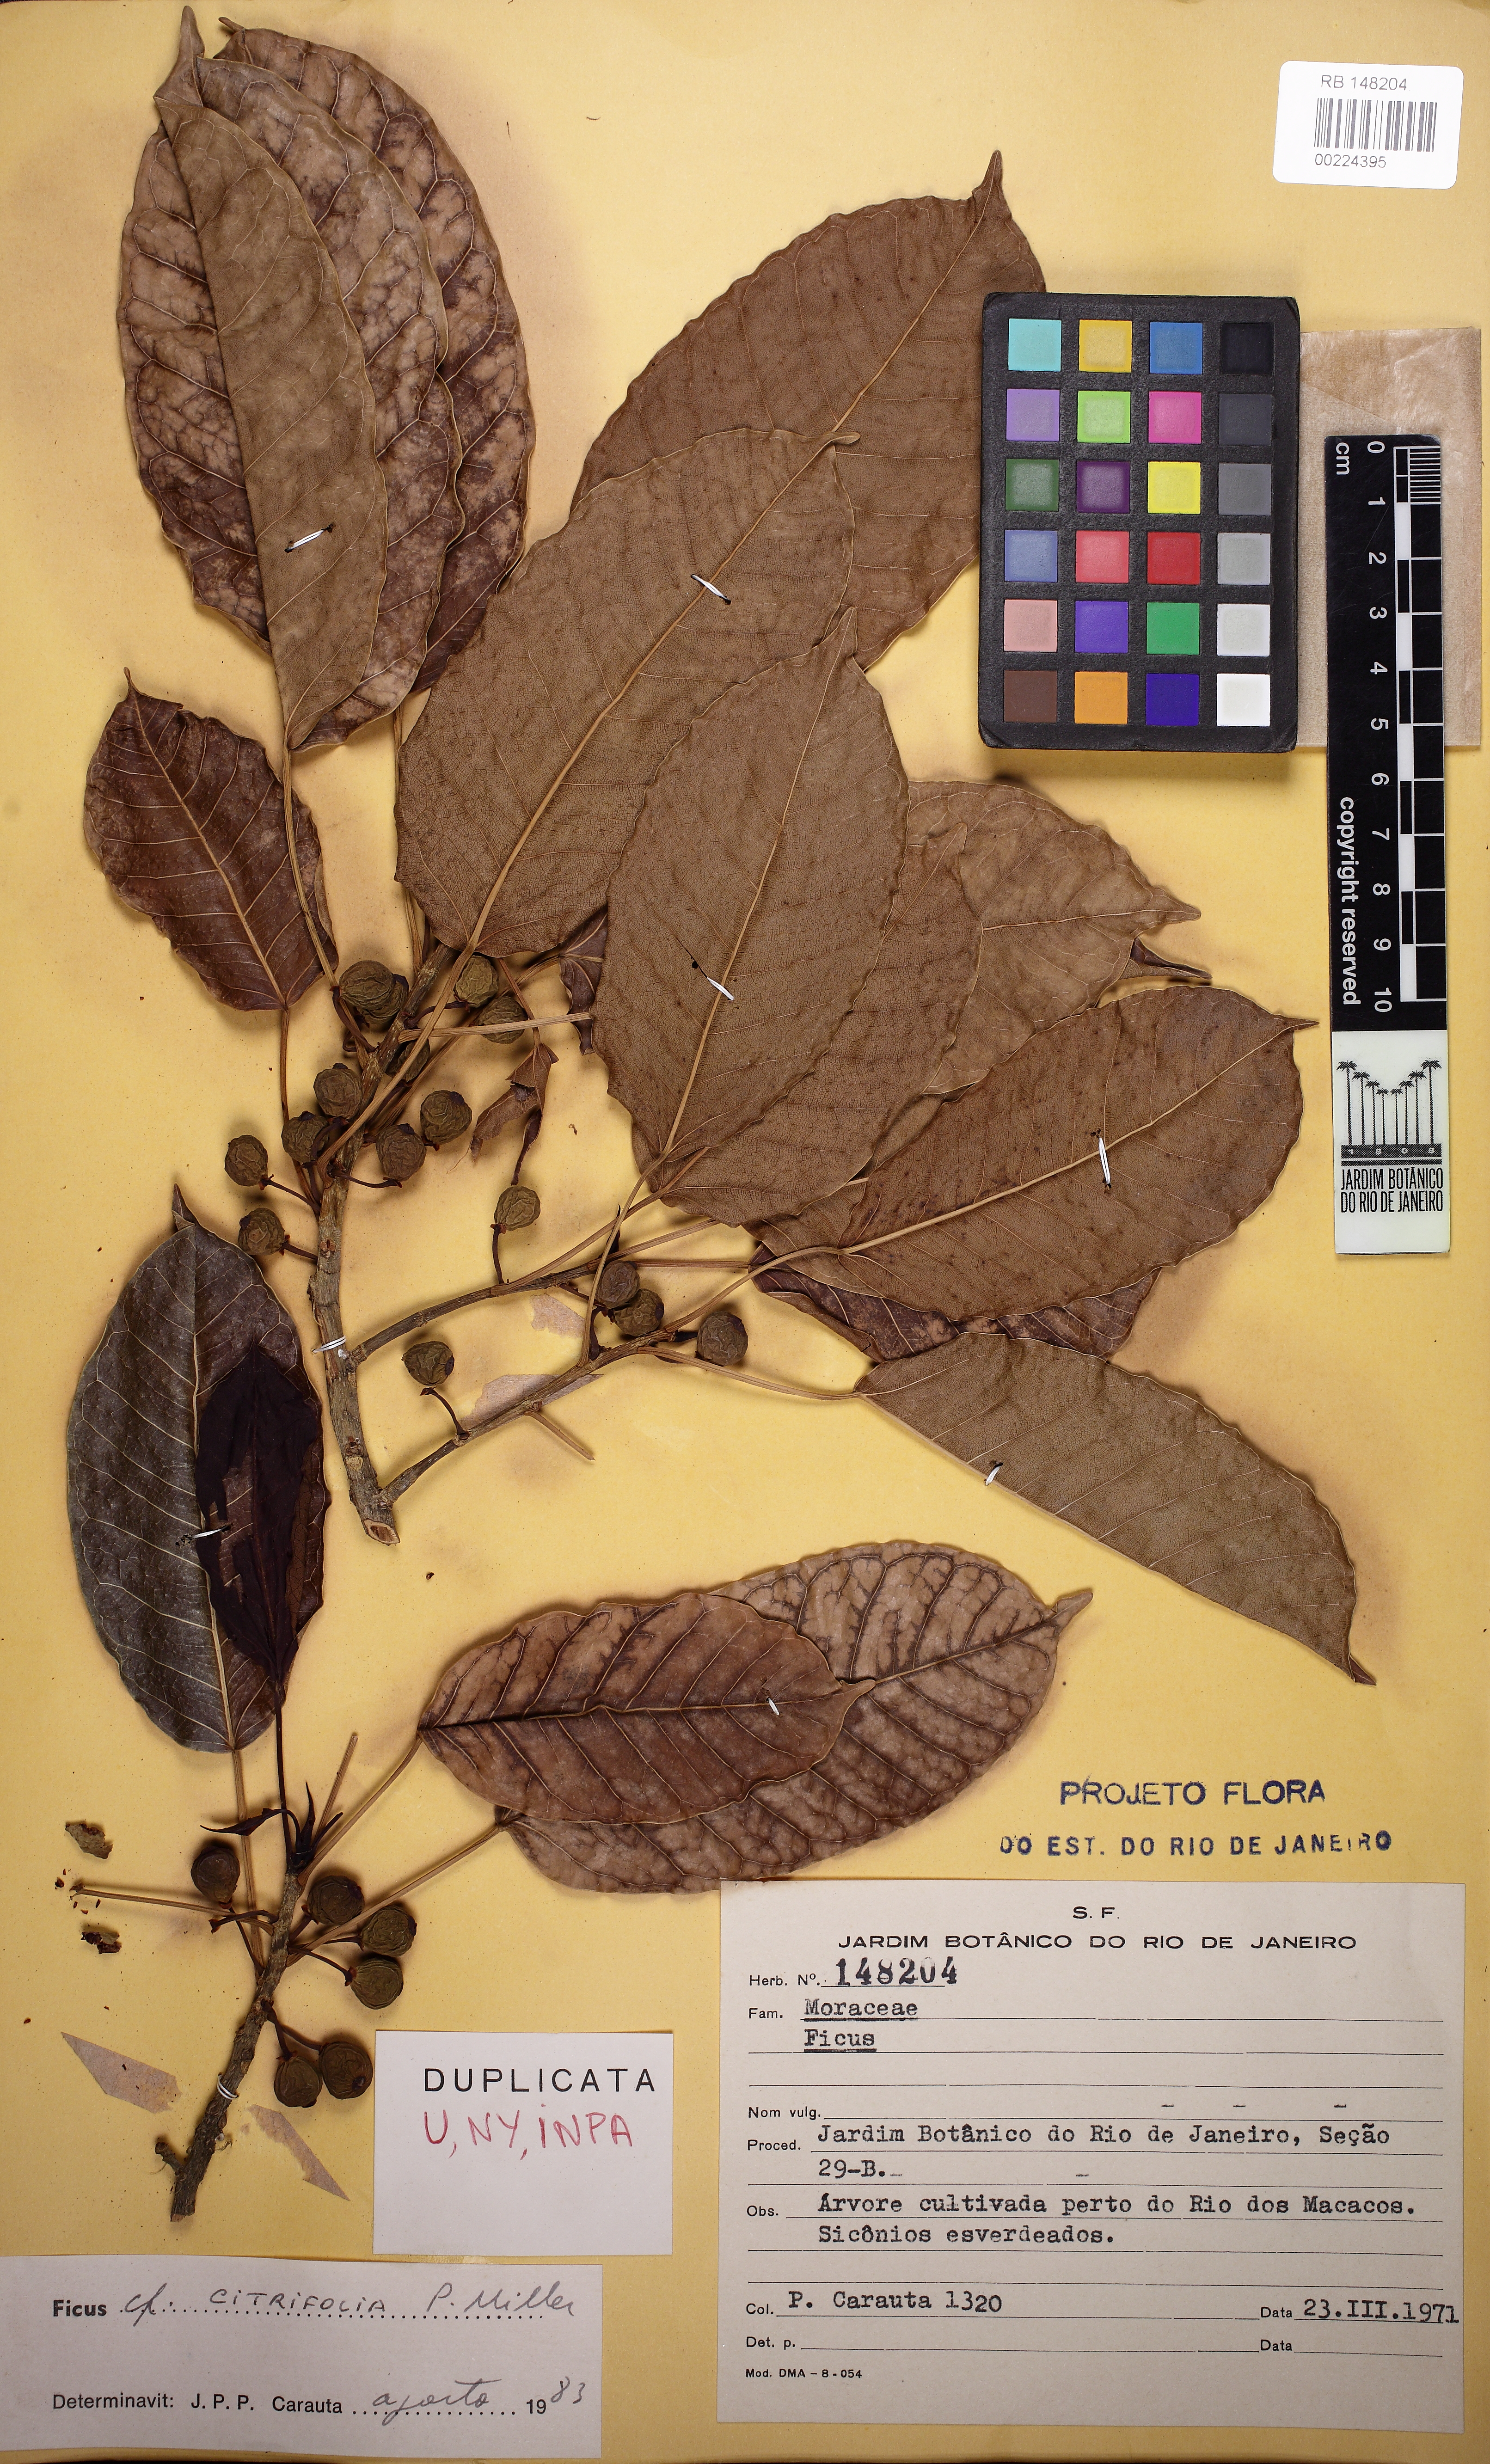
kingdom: Plantae
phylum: Tracheophyta
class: Magnoliopsida
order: Rosales
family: Moraceae
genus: Ficus
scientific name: Ficus guaranitica
